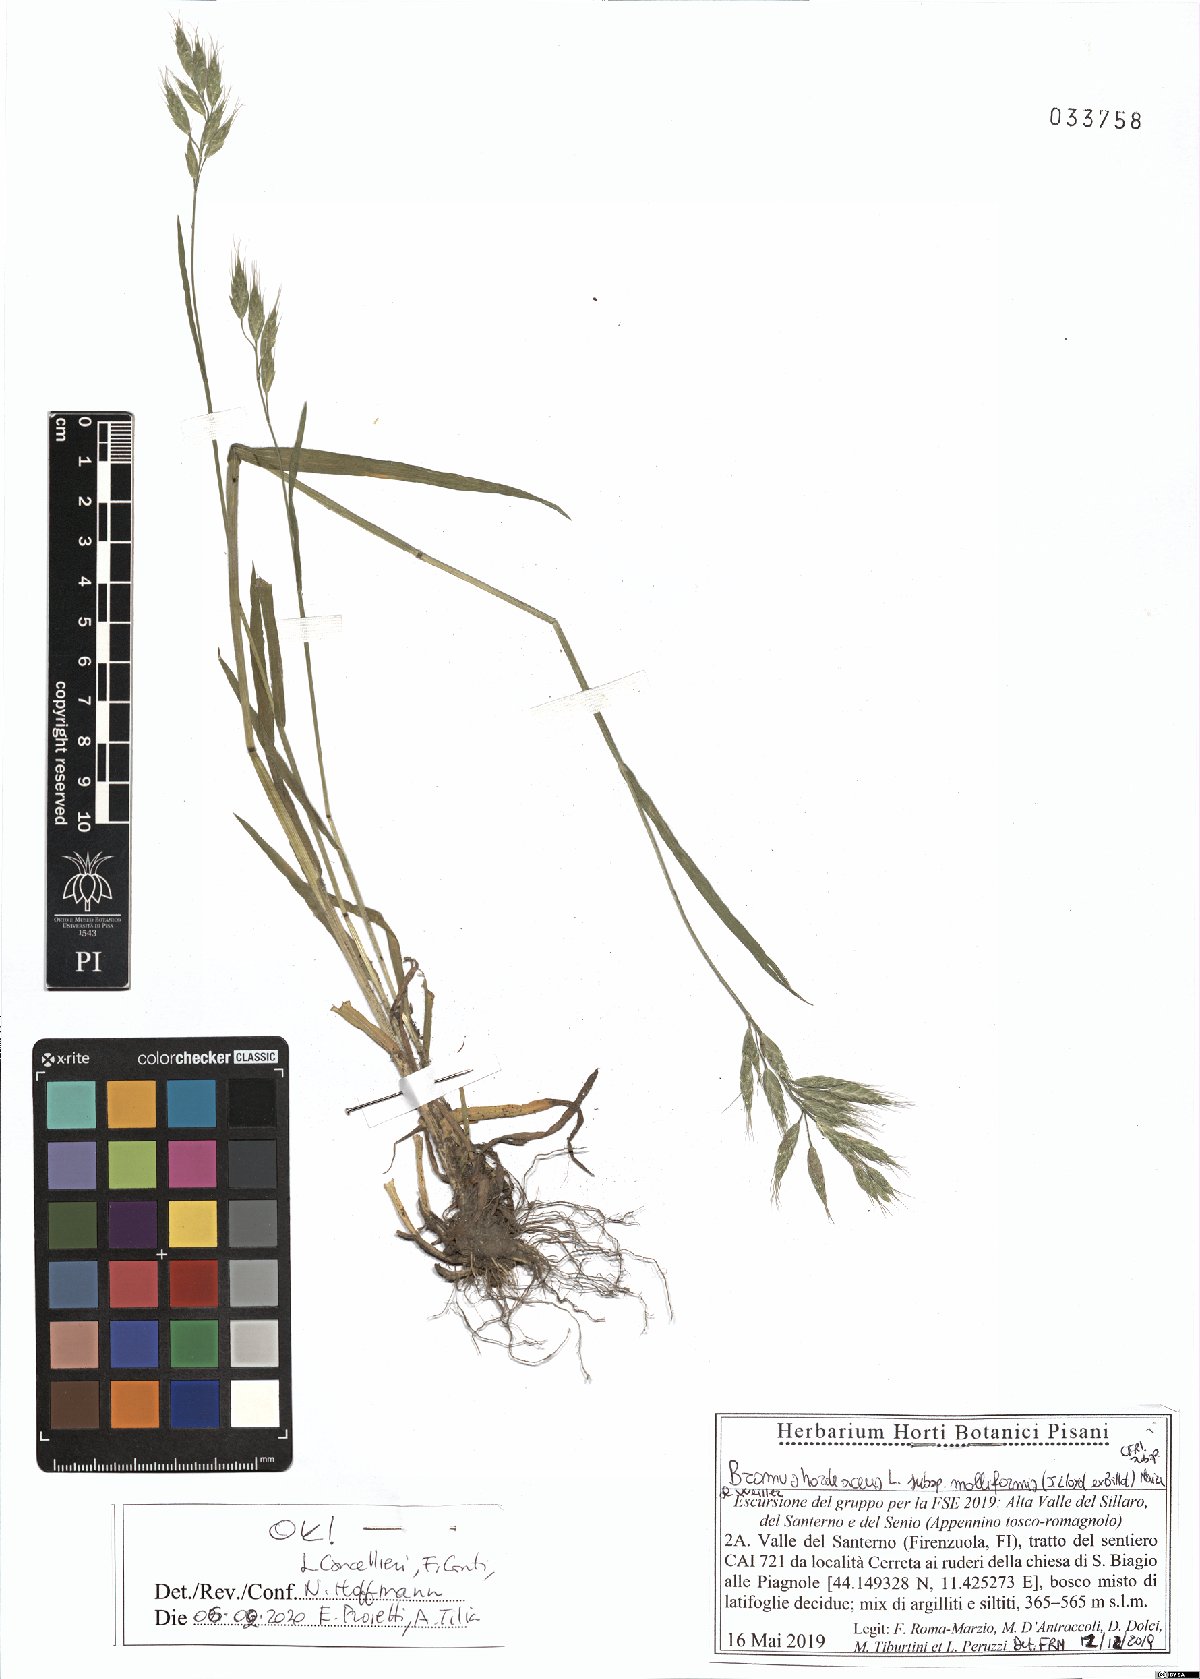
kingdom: Plantae
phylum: Tracheophyta
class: Liliopsida
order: Poales
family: Poaceae
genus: Bromus
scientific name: Bromus hordeaceus
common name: Soft brome
